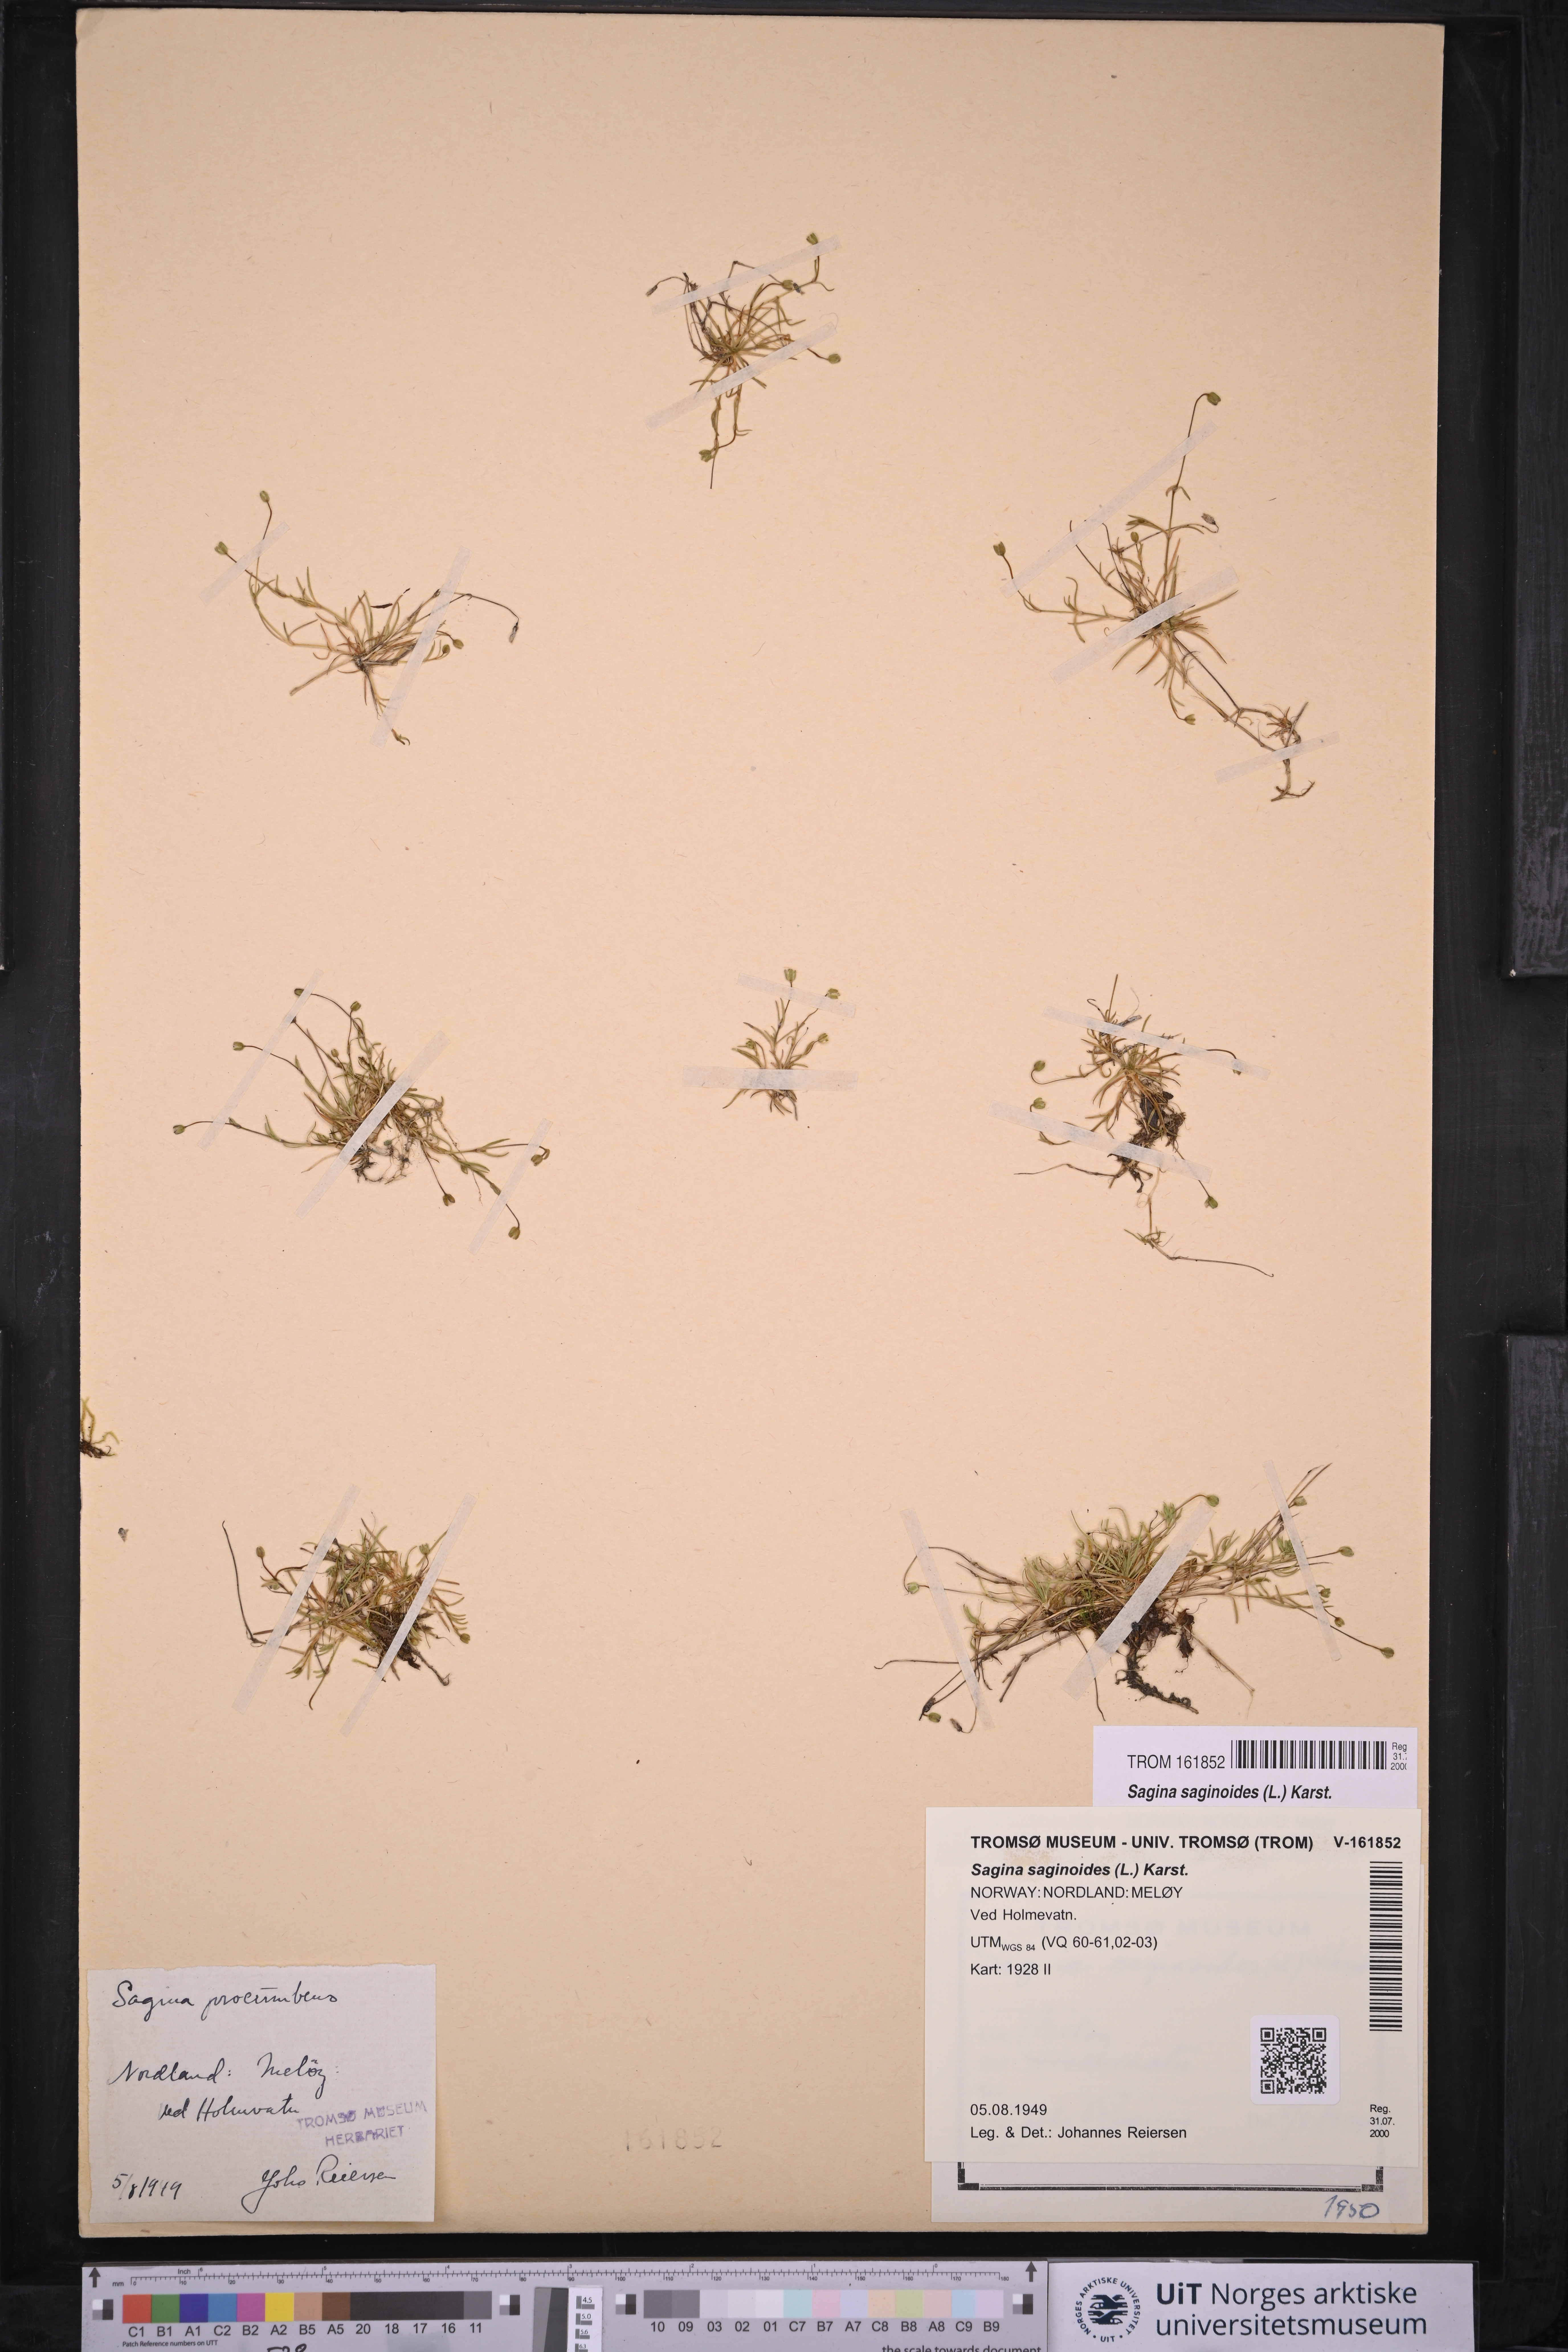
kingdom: Plantae
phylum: Tracheophyta
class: Magnoliopsida
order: Caryophyllales
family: Caryophyllaceae
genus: Sagina
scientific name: Sagina saginoides
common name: Alpine pearlwort
